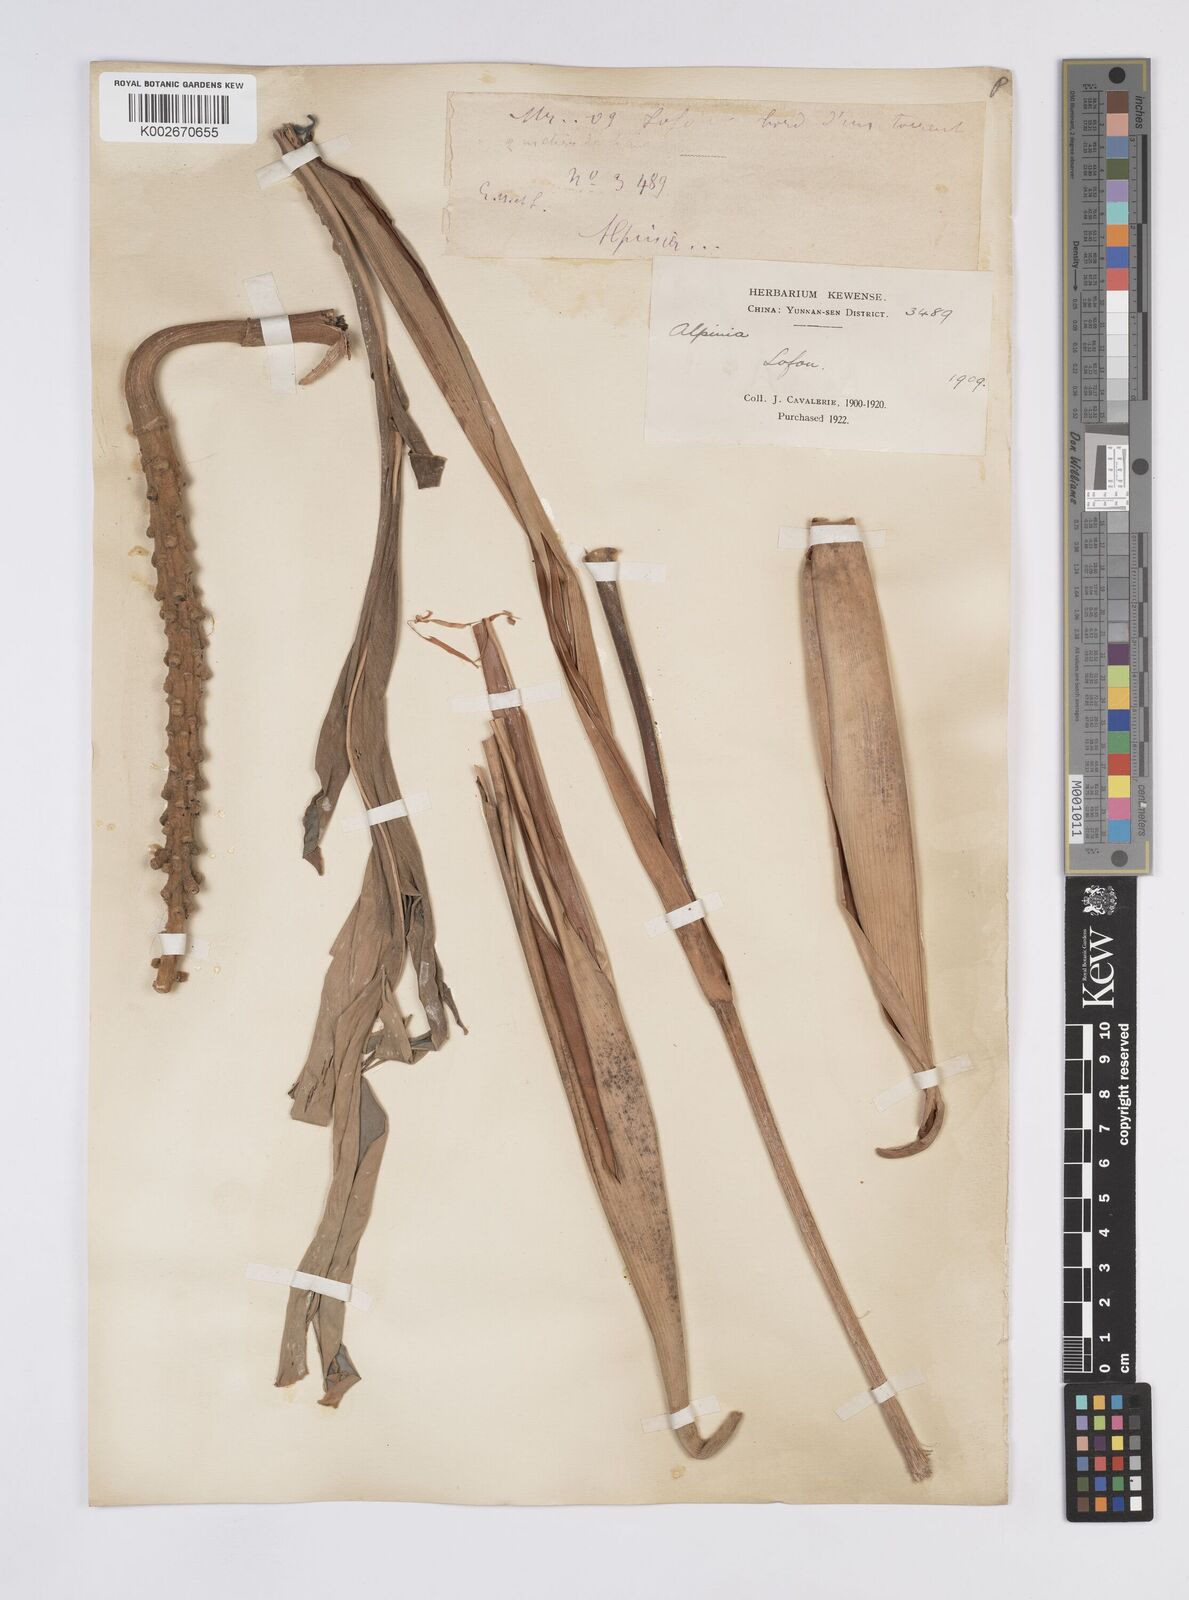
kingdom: Plantae
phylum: Tracheophyta
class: Liliopsida
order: Zingiberales
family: Zingiberaceae
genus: Alpinia
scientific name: Alpinia
